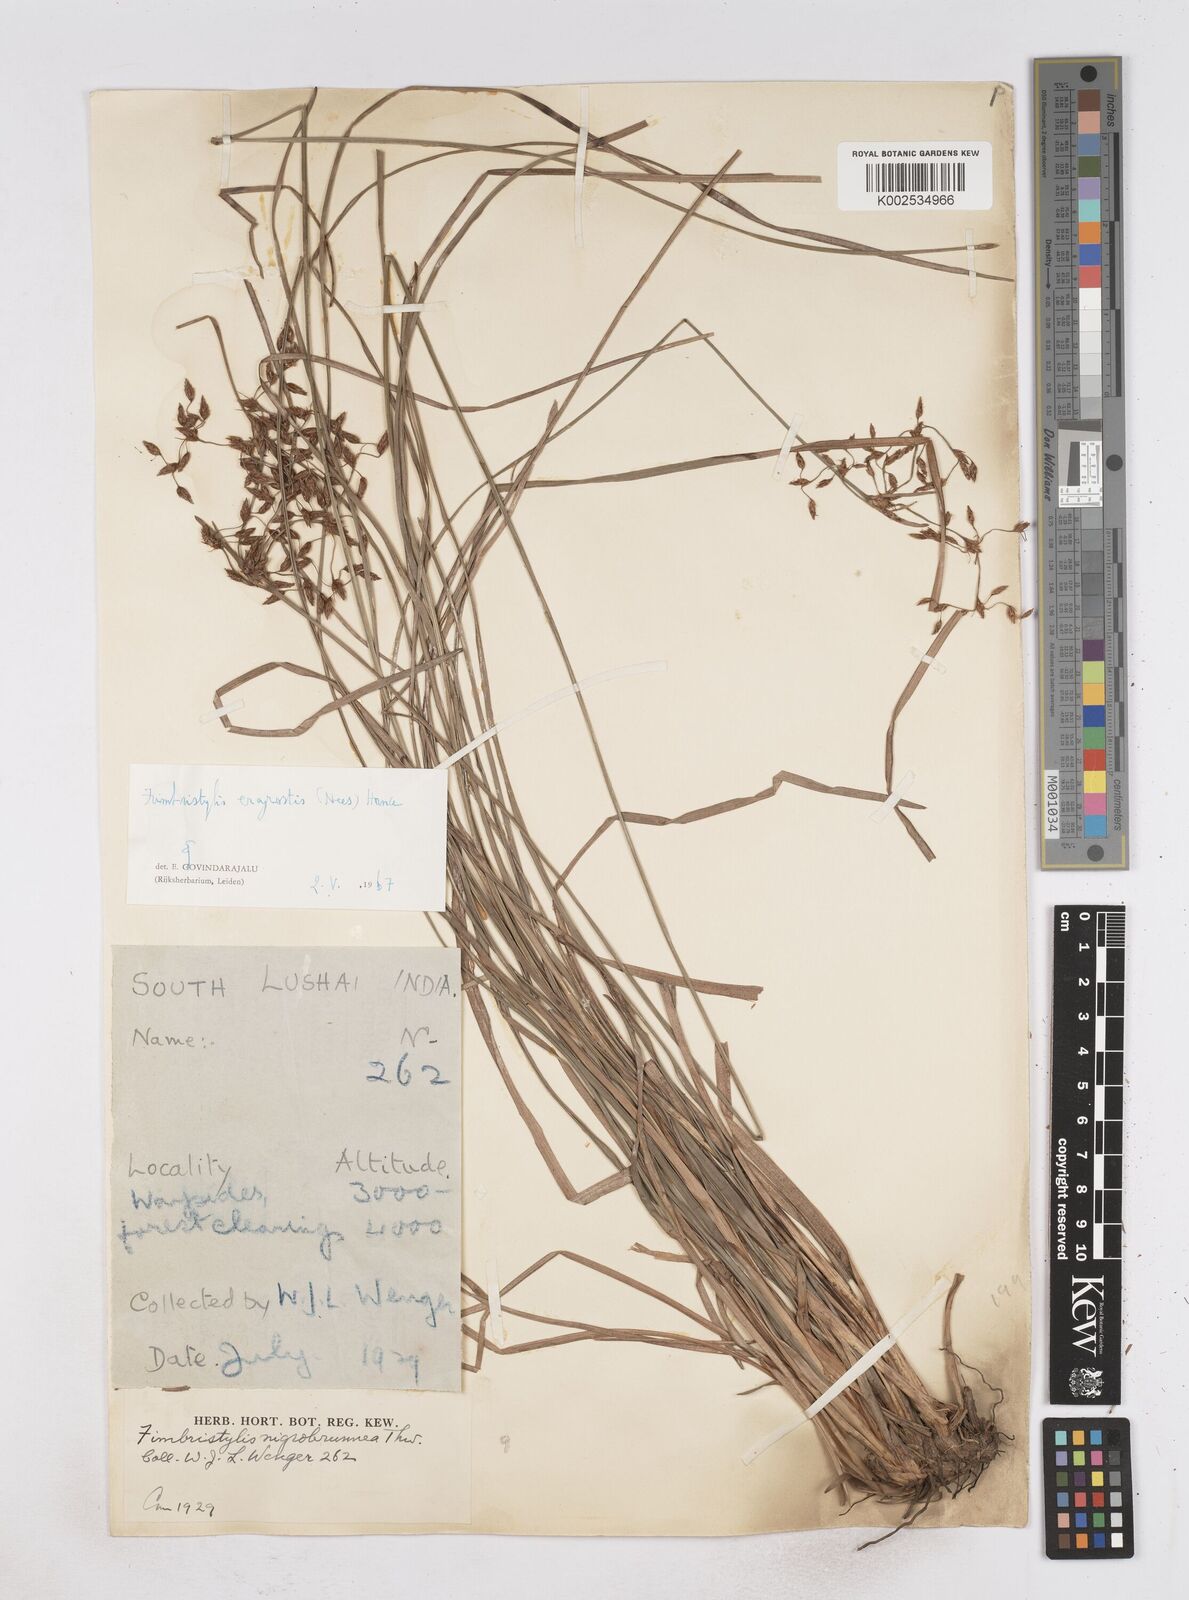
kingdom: Plantae
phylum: Tracheophyta
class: Liliopsida
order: Poales
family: Cyperaceae
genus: Fimbristylis
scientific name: Fimbristylis nigrobrunnea
